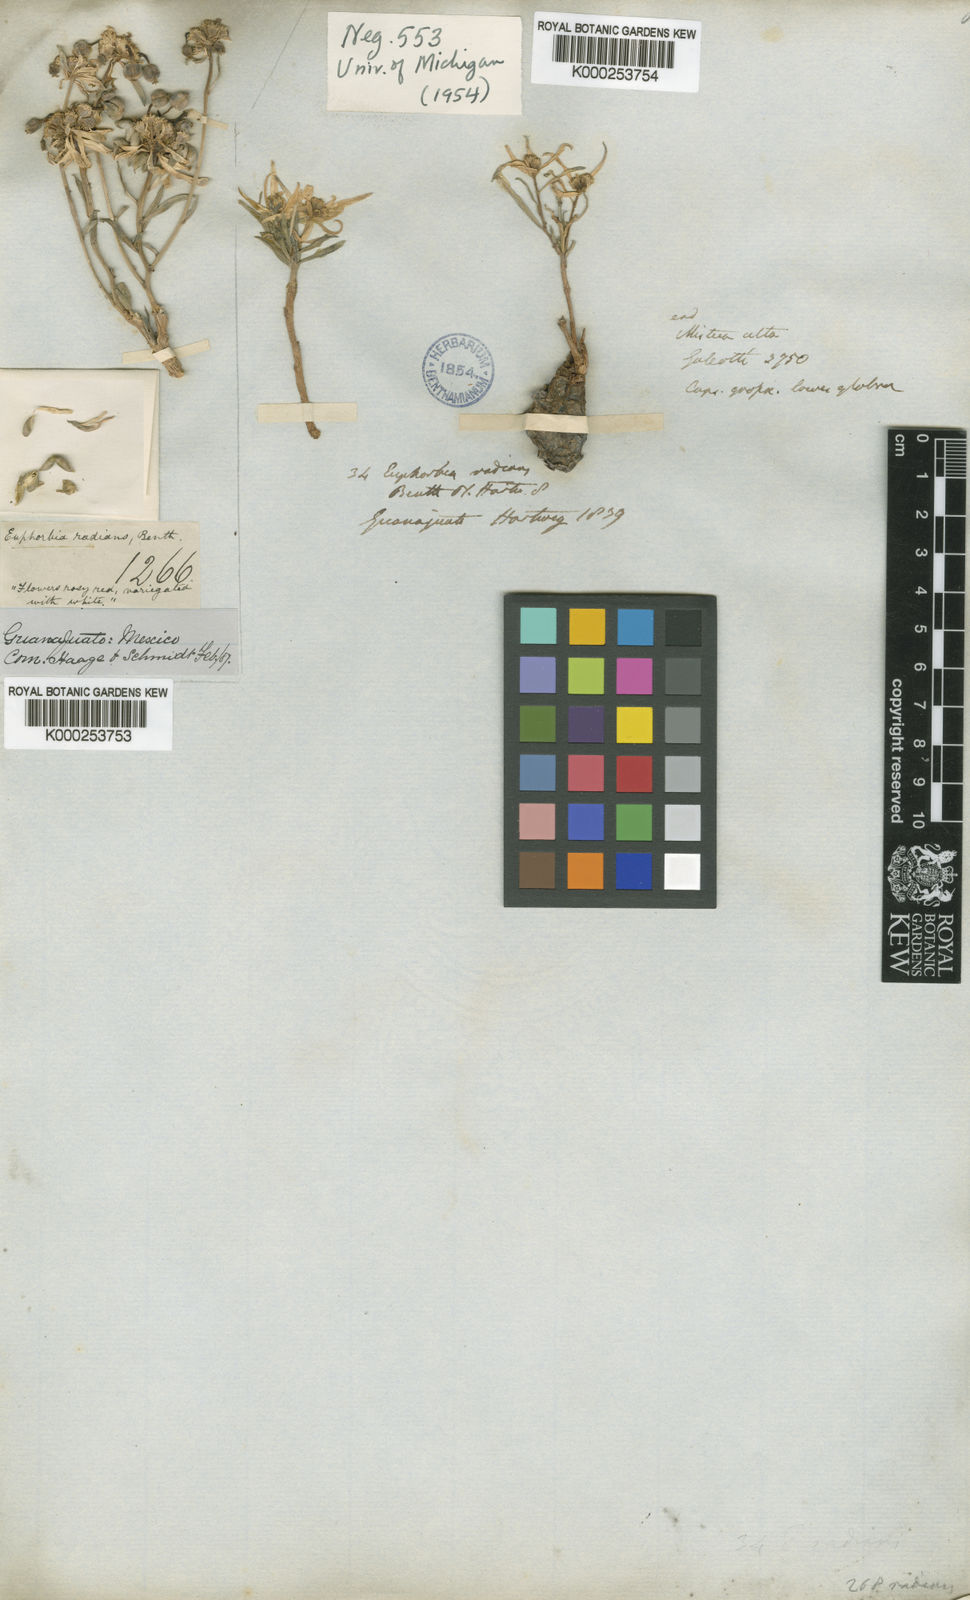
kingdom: Plantae
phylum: Tracheophyta
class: Magnoliopsida
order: Malpighiales
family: Euphorbiaceae
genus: Euphorbia
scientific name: Euphorbia radians
